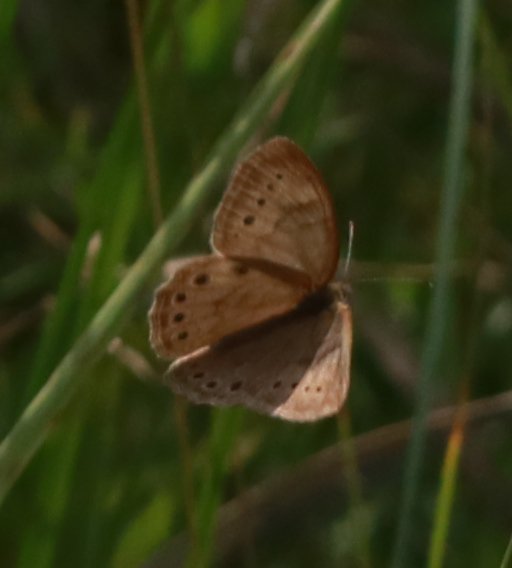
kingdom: Animalia
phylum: Arthropoda
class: Insecta
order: Lepidoptera
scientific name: Lepidoptera
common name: Butterflies
